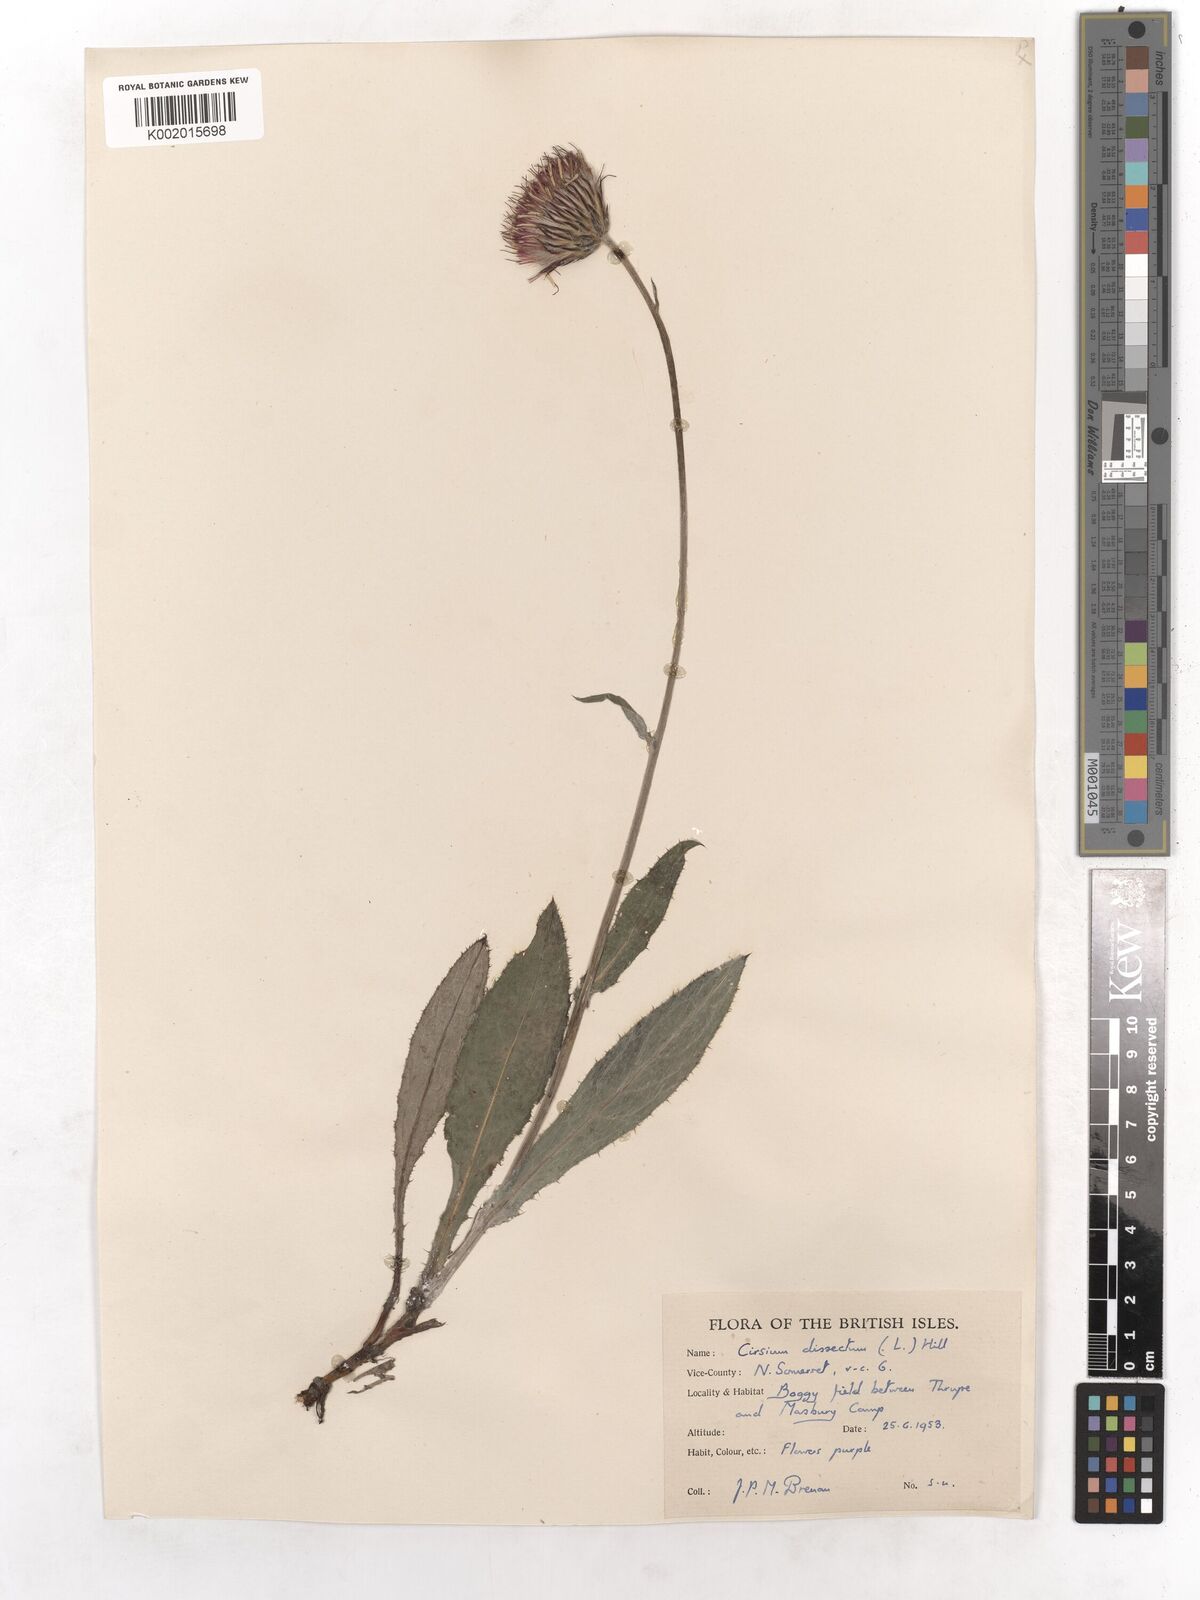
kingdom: Plantae
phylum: Tracheophyta
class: Magnoliopsida
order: Asterales
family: Asteraceae
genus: Cirsium
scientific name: Cirsium dissectum
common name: Meadow thistle
